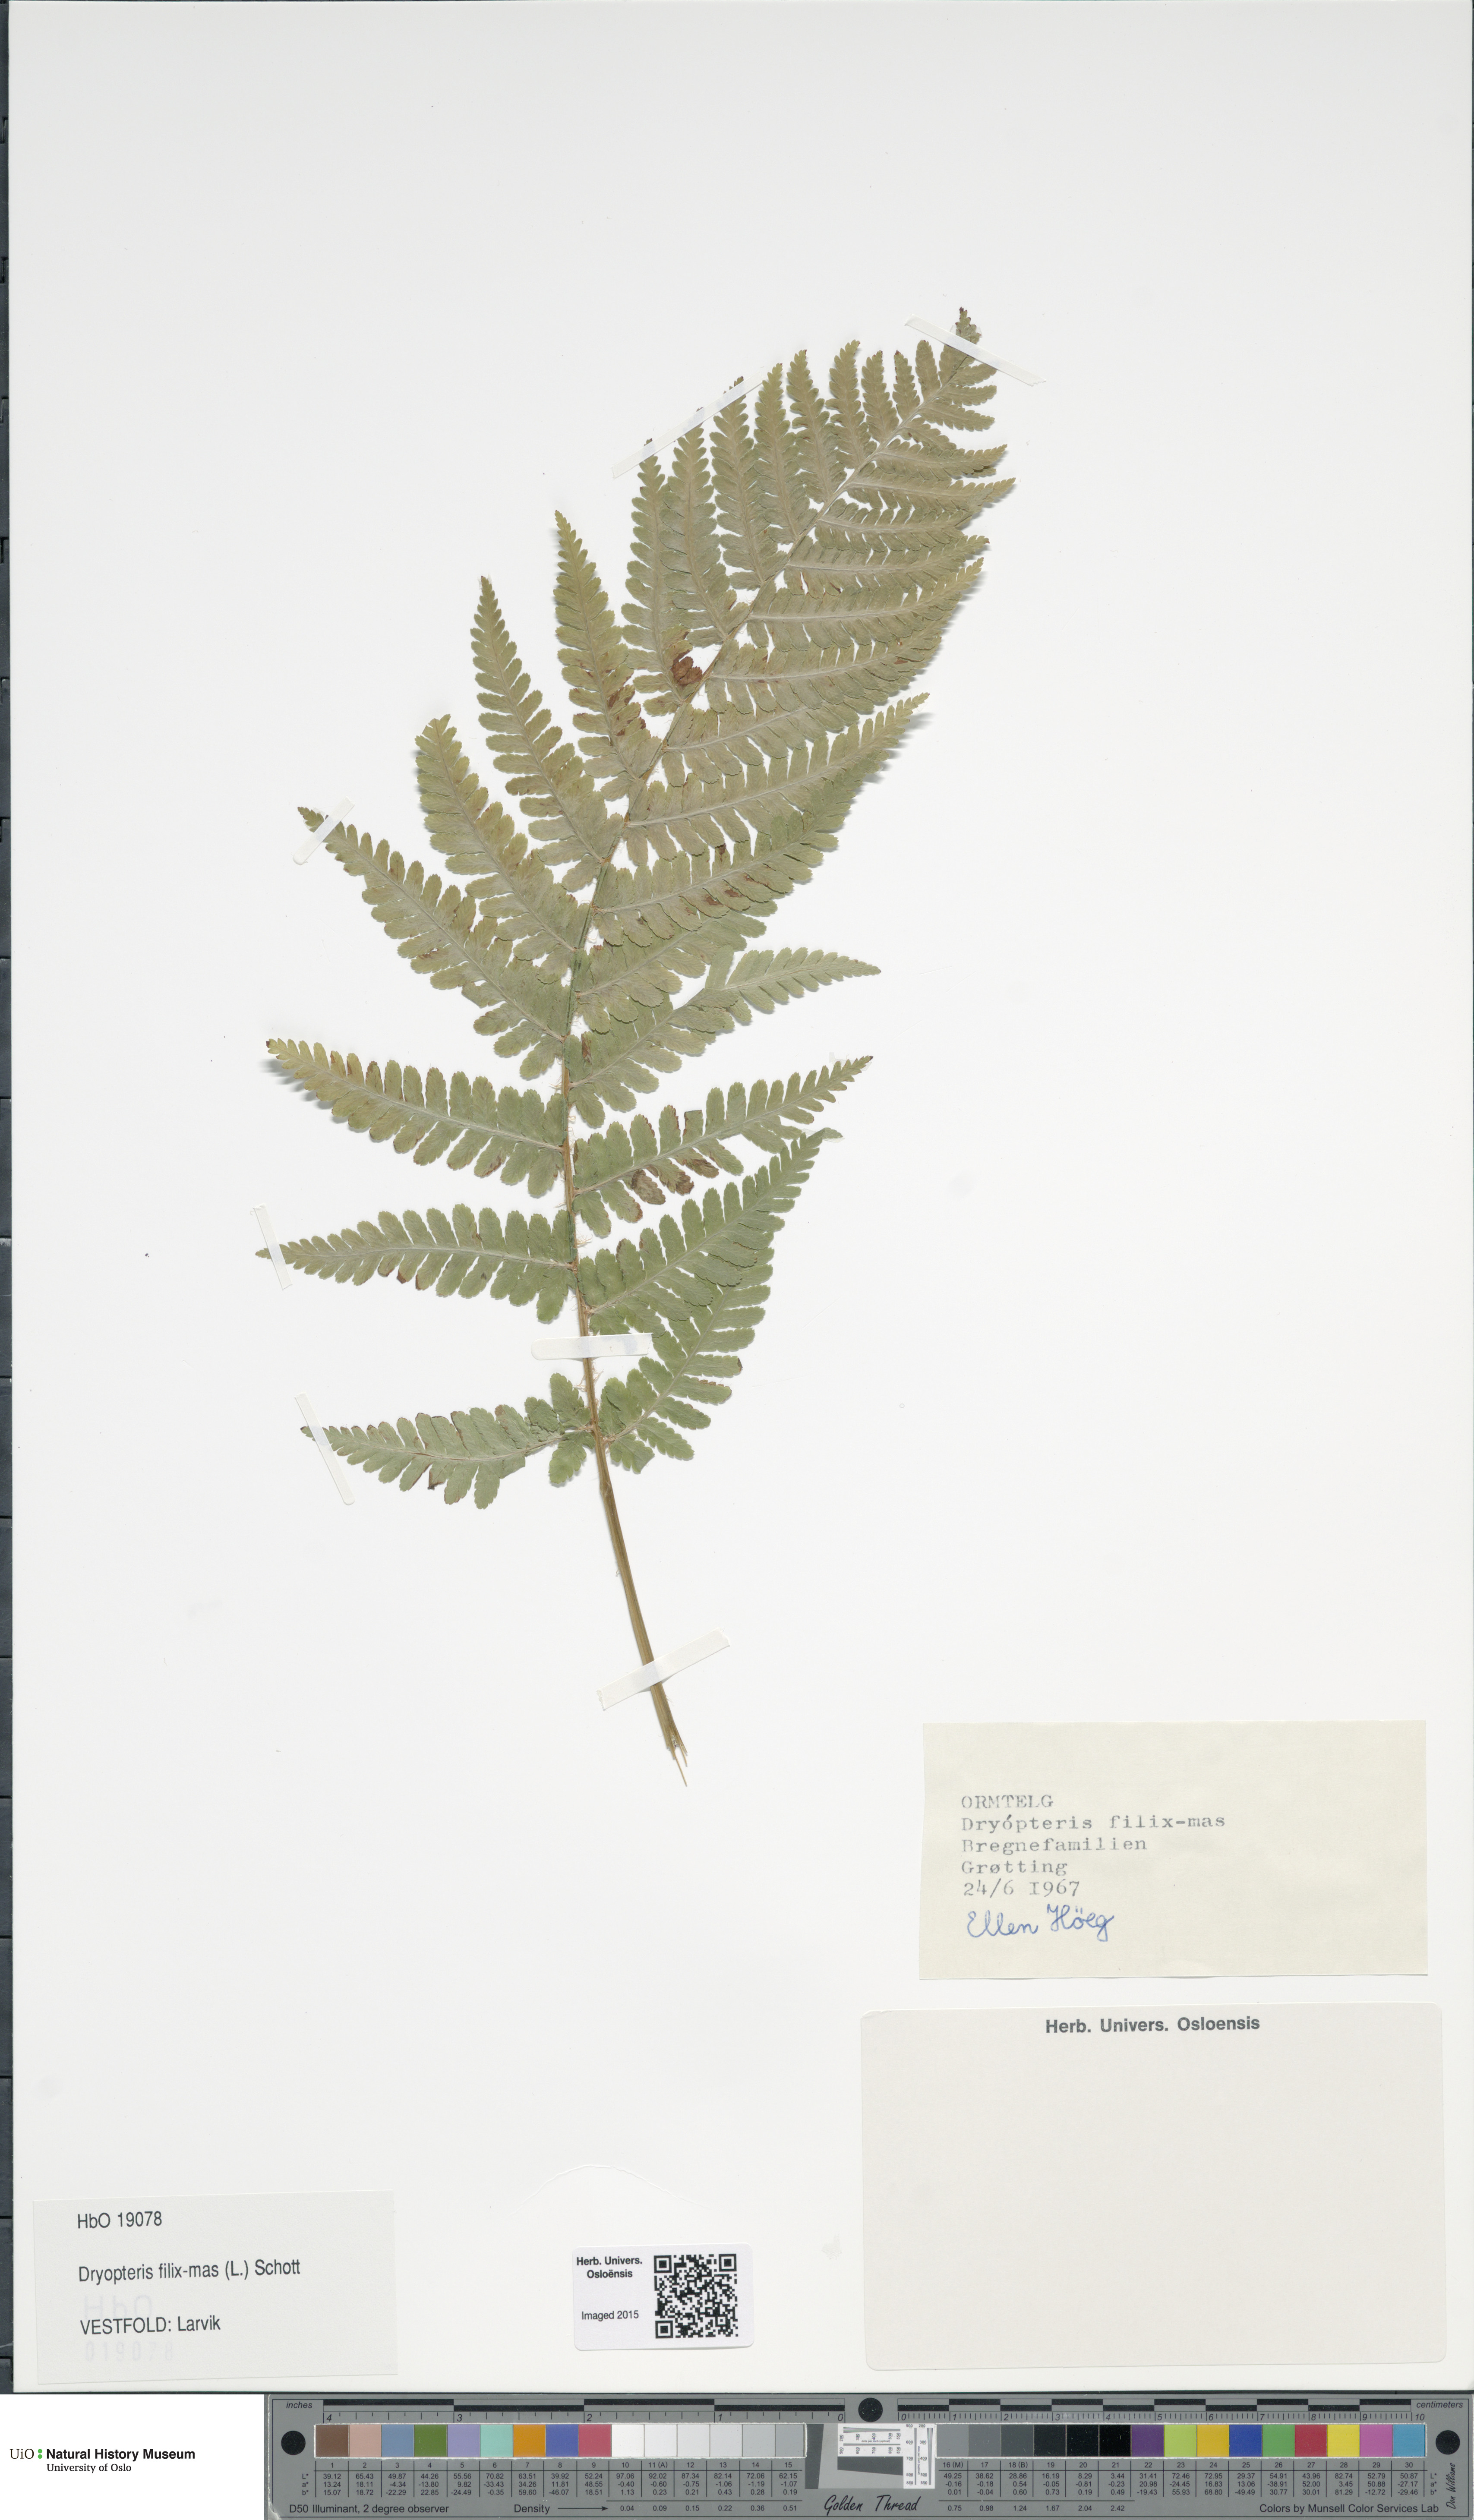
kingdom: Plantae
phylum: Tracheophyta
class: Polypodiopsida
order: Polypodiales
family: Dryopteridaceae
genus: Dryopteris
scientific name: Dryopteris filix-mas
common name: Male fern
